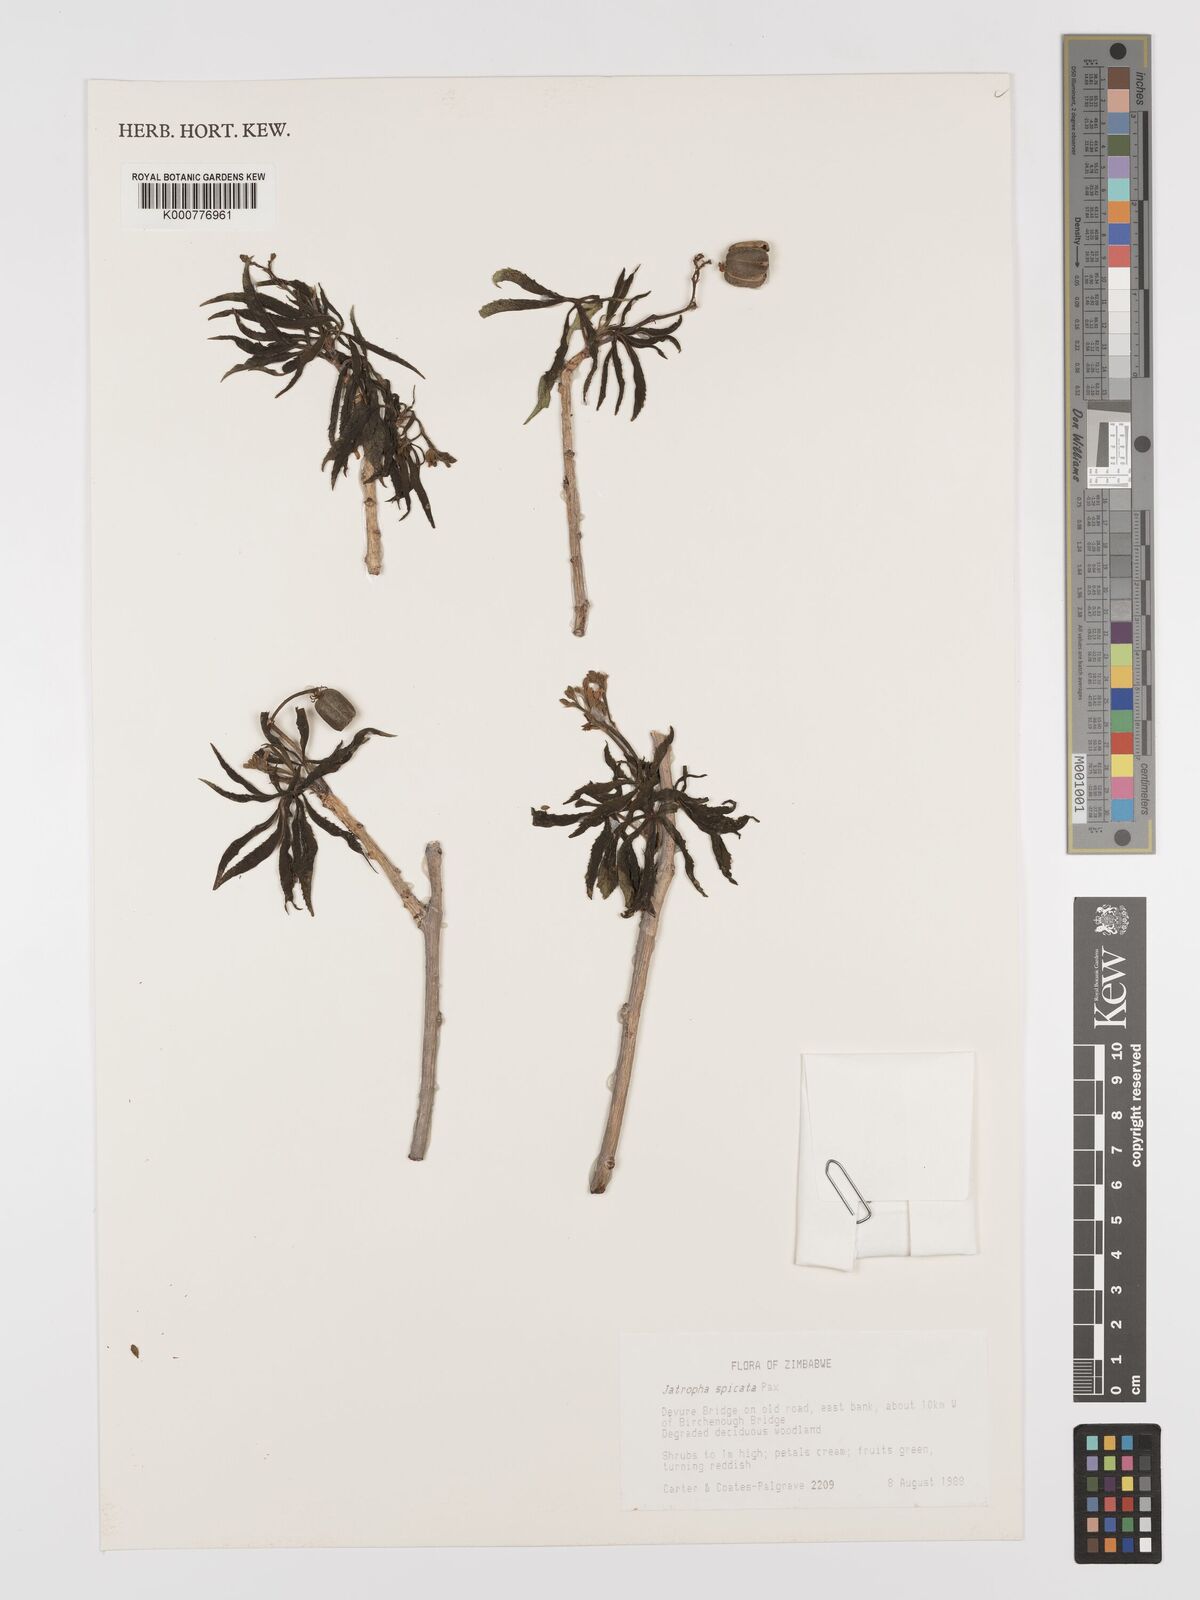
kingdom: Plantae
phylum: Tracheophyta
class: Magnoliopsida
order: Malpighiales
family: Euphorbiaceae
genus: Jatropha
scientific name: Jatropha spicata
